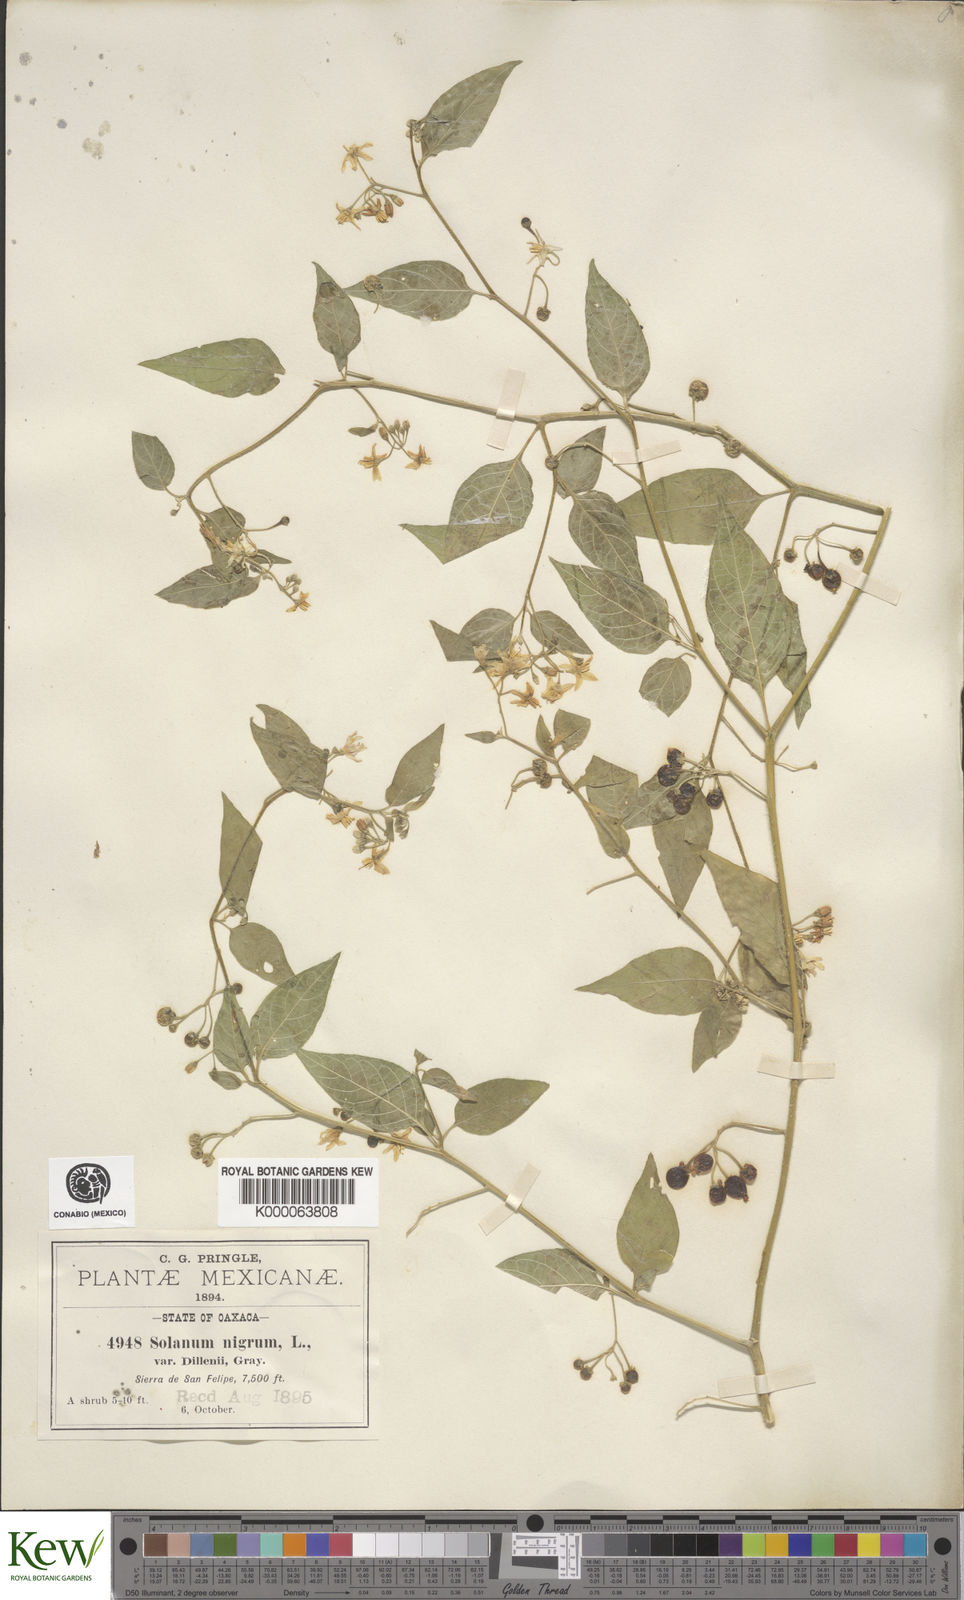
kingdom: Plantae
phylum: Tracheophyta
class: Magnoliopsida
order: Solanales
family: Solanaceae
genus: Solanum
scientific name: Solanum americanum
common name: American black nightshade
